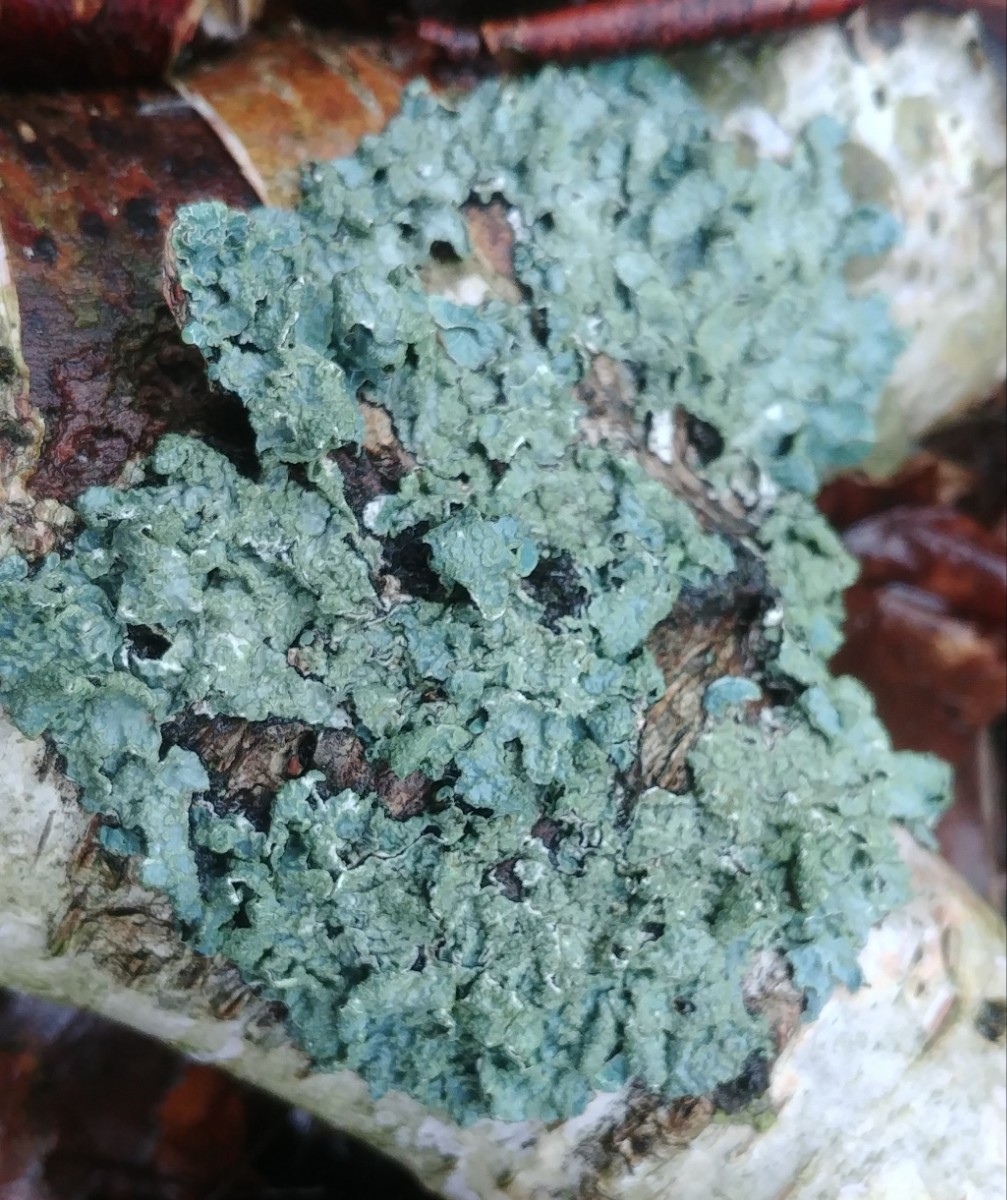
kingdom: Fungi
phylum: Ascomycota
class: Lecanoromycetes
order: Lecanorales
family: Parmeliaceae
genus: Parmelia
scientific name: Parmelia sulcata
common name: rynket skållav
